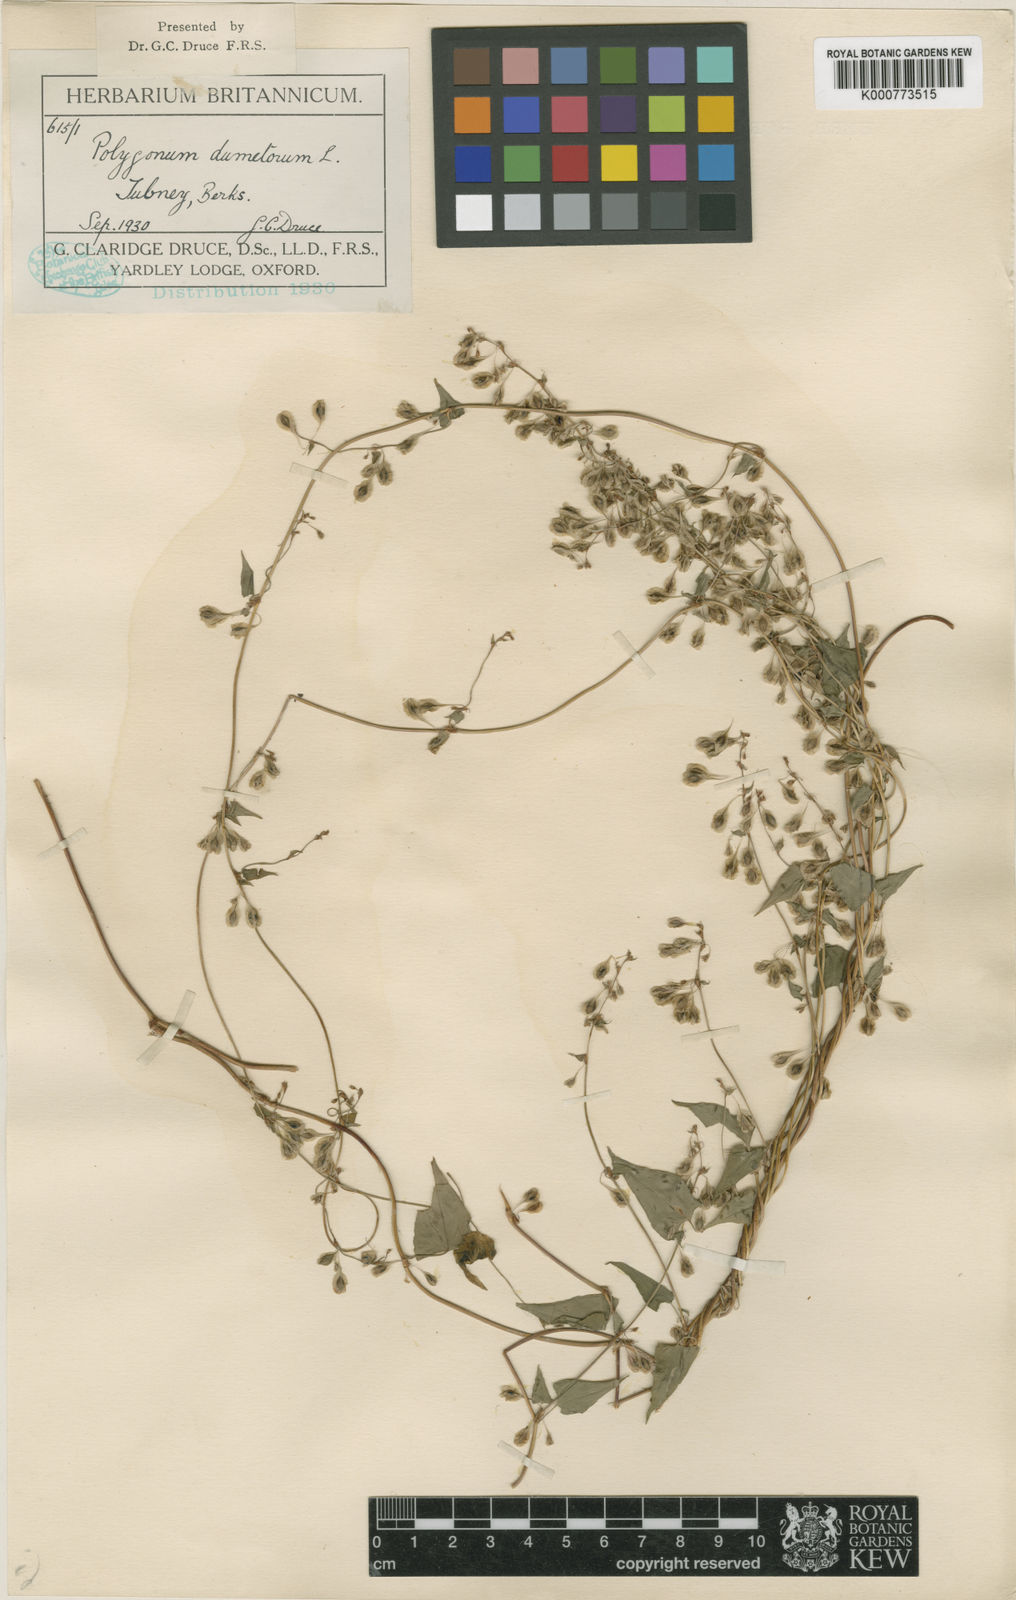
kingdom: Plantae
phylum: Tracheophyta
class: Magnoliopsida
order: Caryophyllales
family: Polygonaceae
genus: Fallopia
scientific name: Fallopia dumetorum
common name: Copse-bindweed
